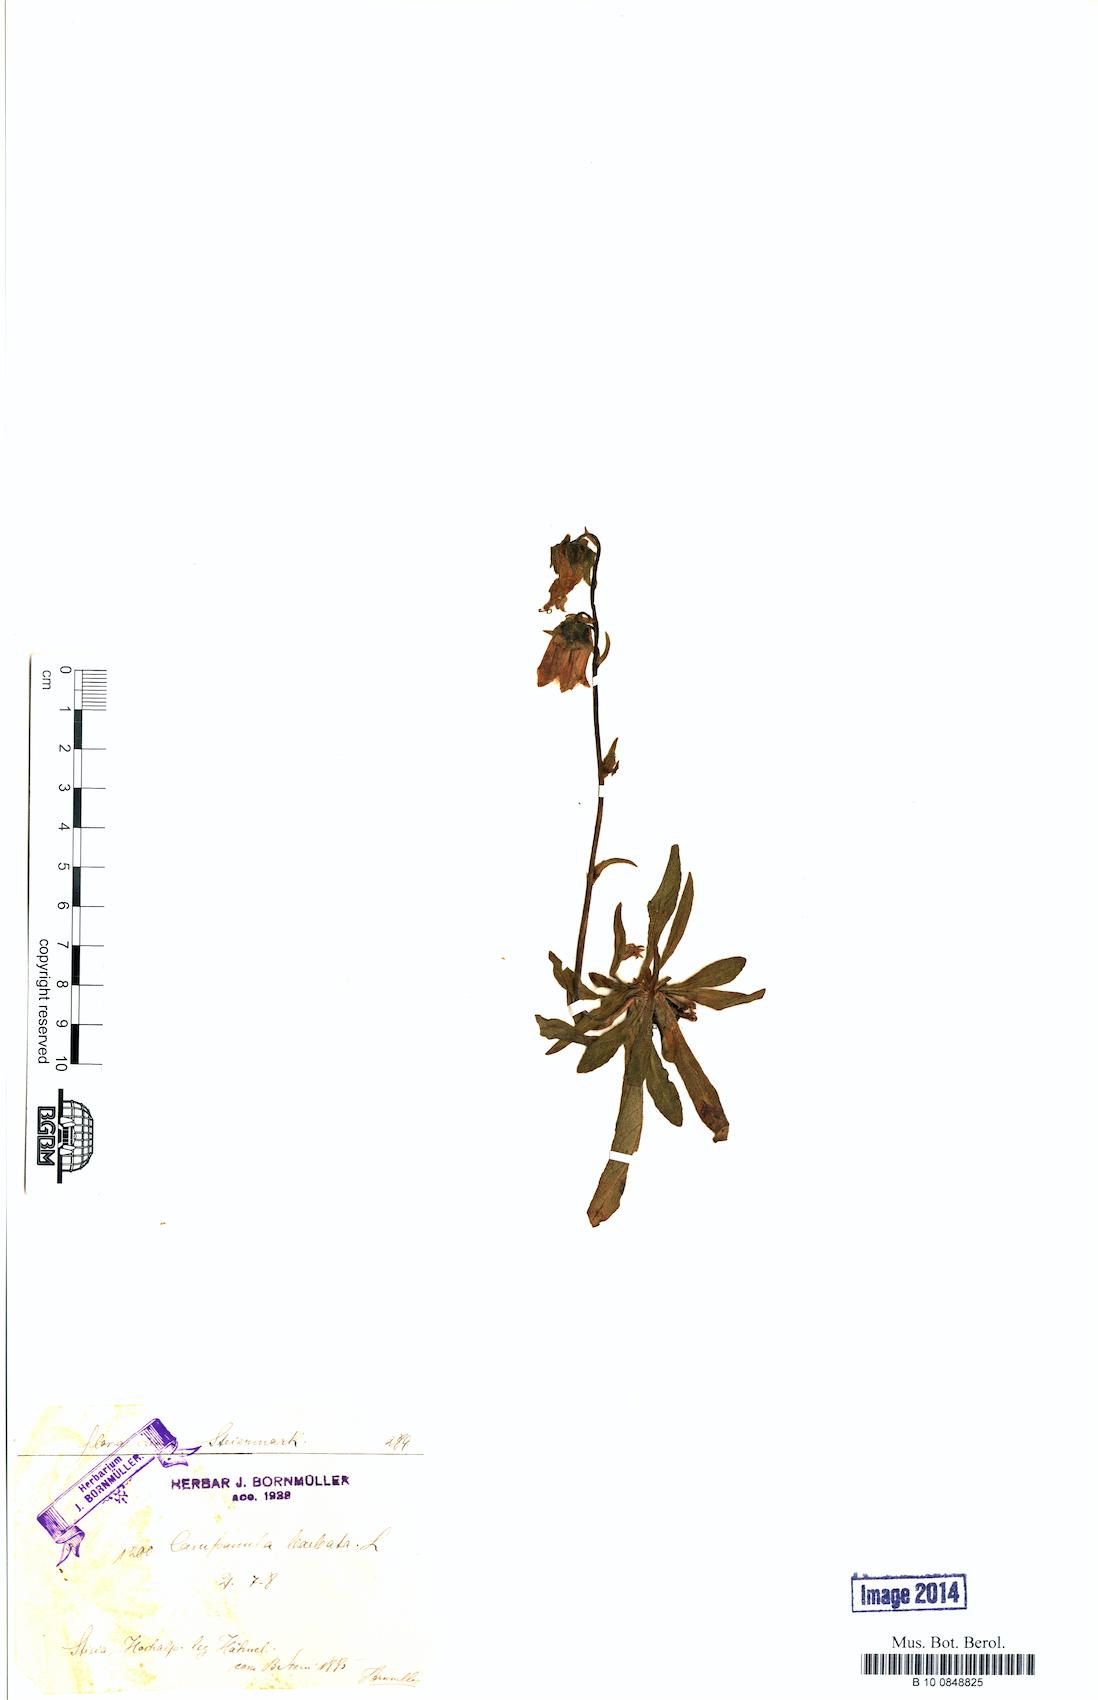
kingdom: Plantae
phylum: Tracheophyta
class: Magnoliopsida
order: Asterales
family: Campanulaceae
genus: Campanula
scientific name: Campanula barbata
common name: Bearded bellflower
